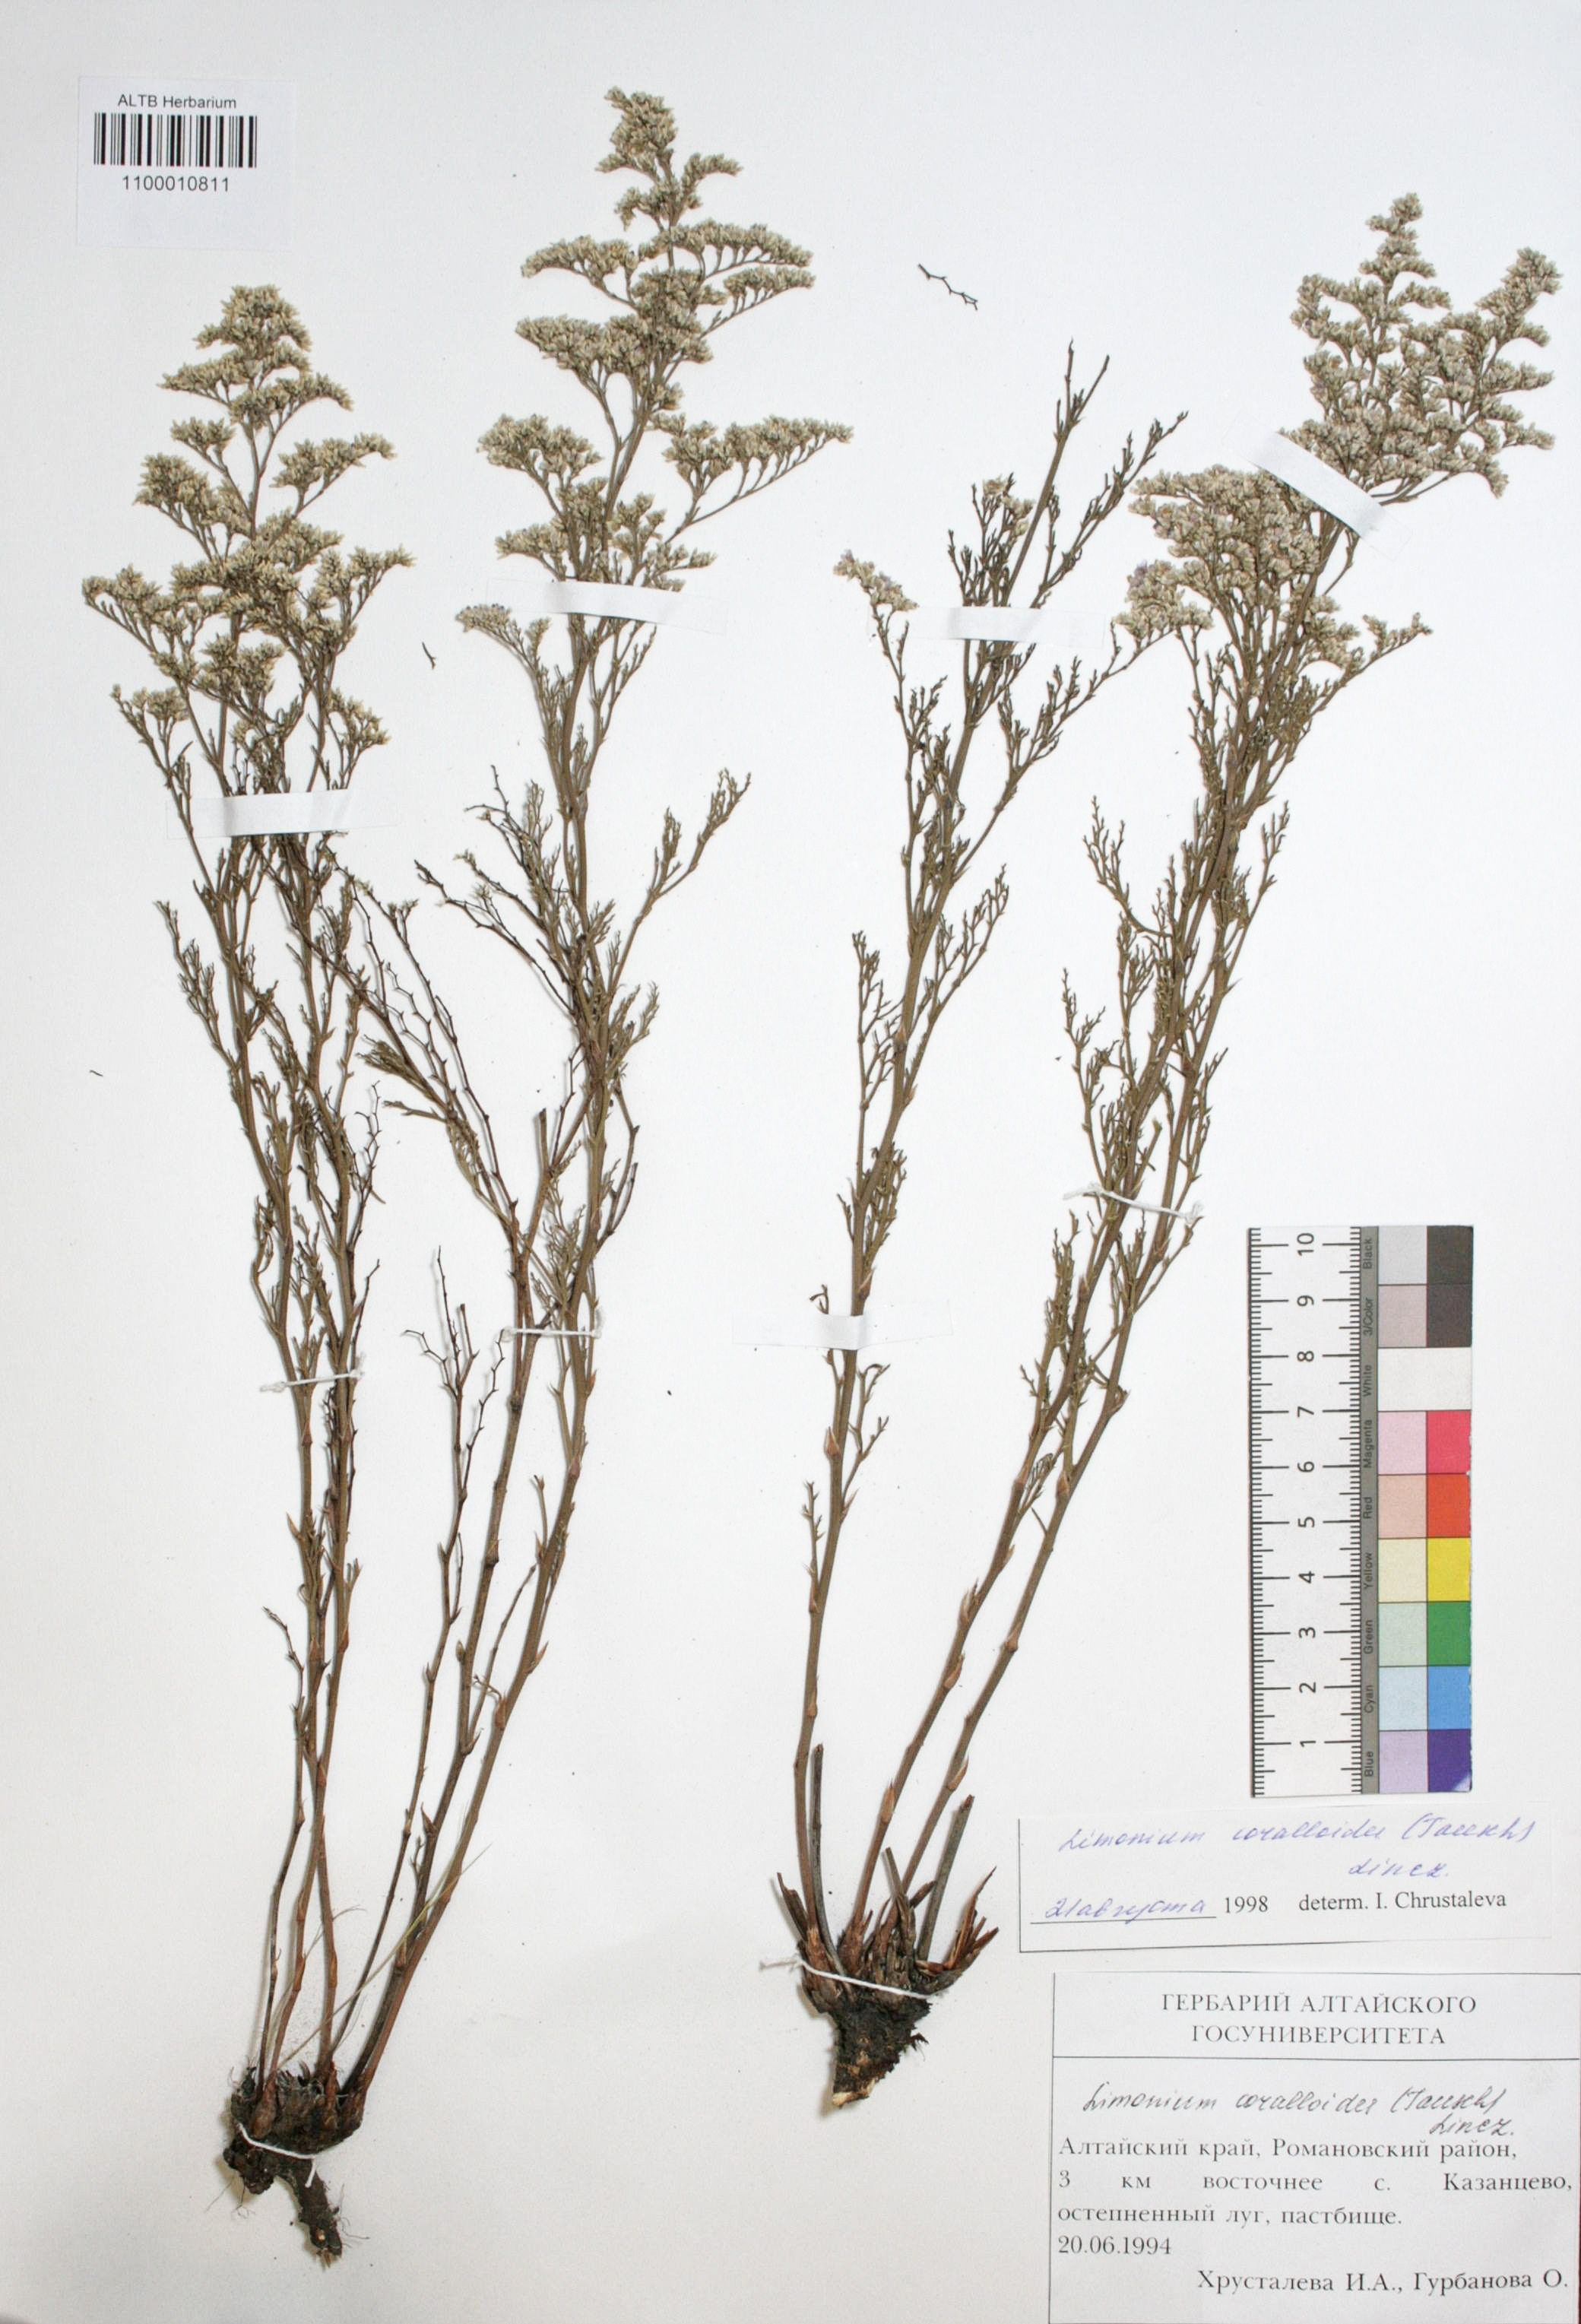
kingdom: Plantae
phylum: Tracheophyta
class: Magnoliopsida
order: Caryophyllales
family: Plumbaginaceae
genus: Limonium
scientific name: Limonium coralloides
